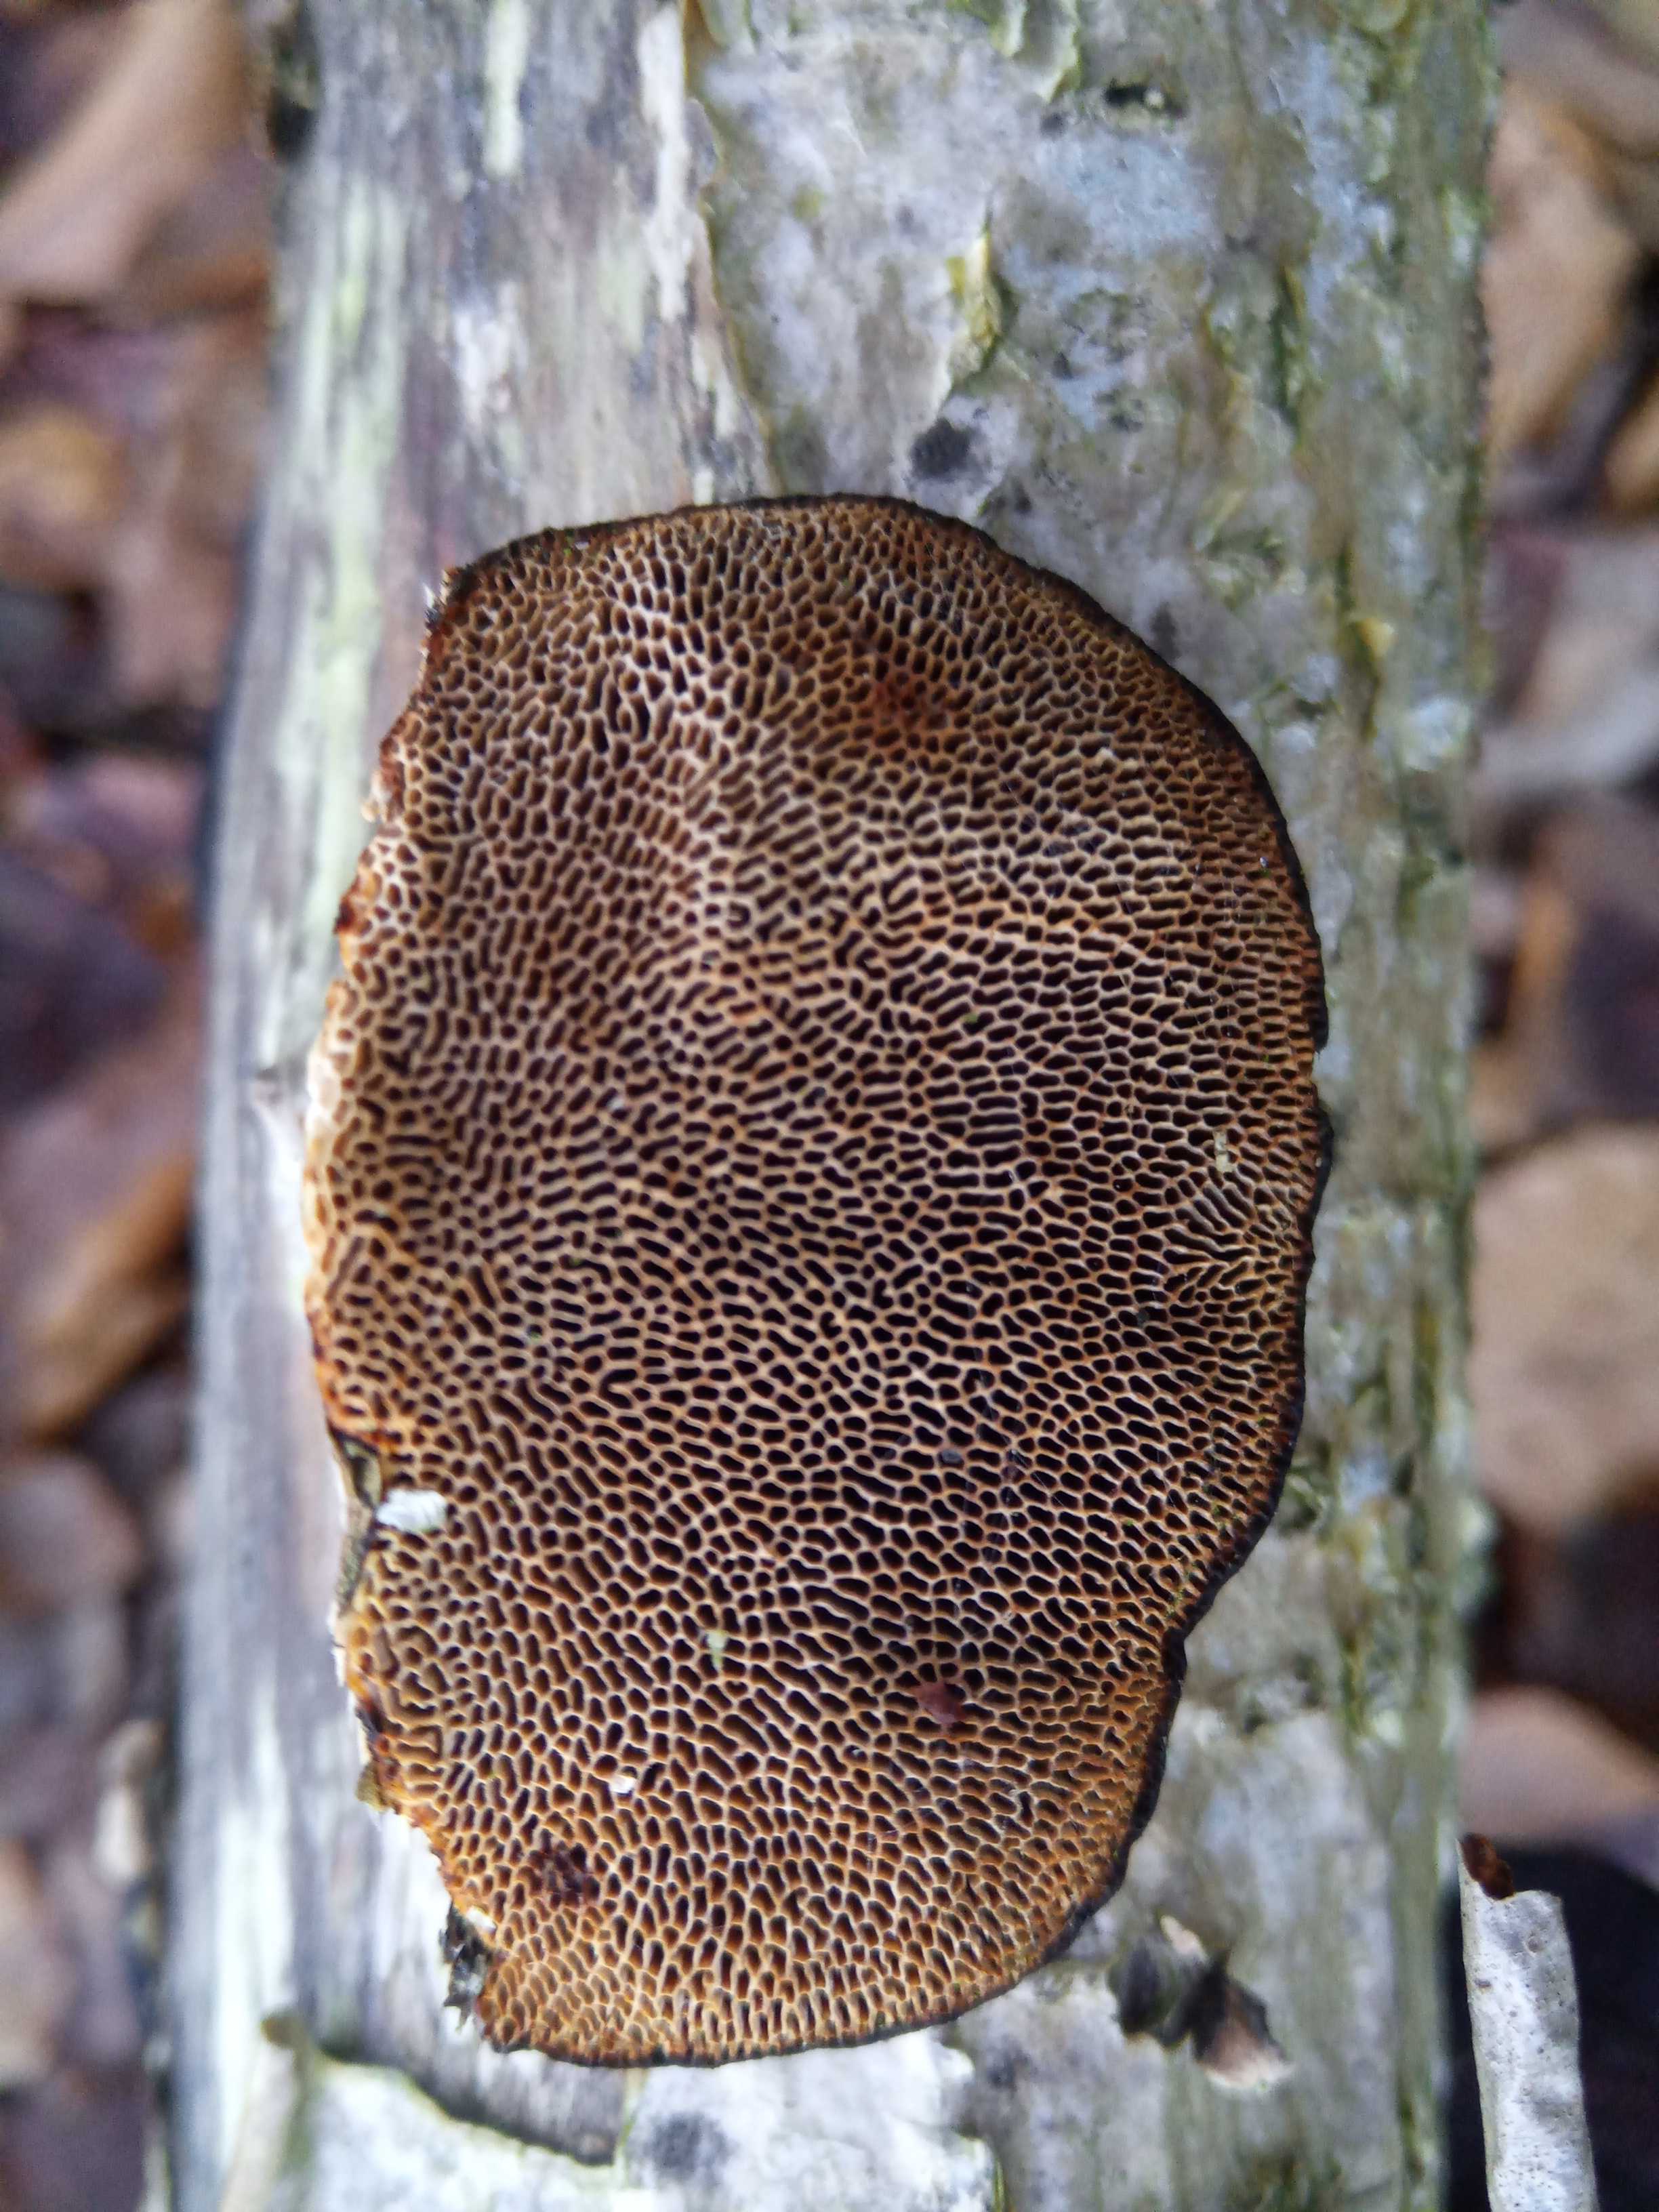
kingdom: Fungi
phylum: Basidiomycota
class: Agaricomycetes
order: Polyporales
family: Polyporaceae
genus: Daedaleopsis
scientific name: Daedaleopsis confragosa
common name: rødmende læderporesvamp
